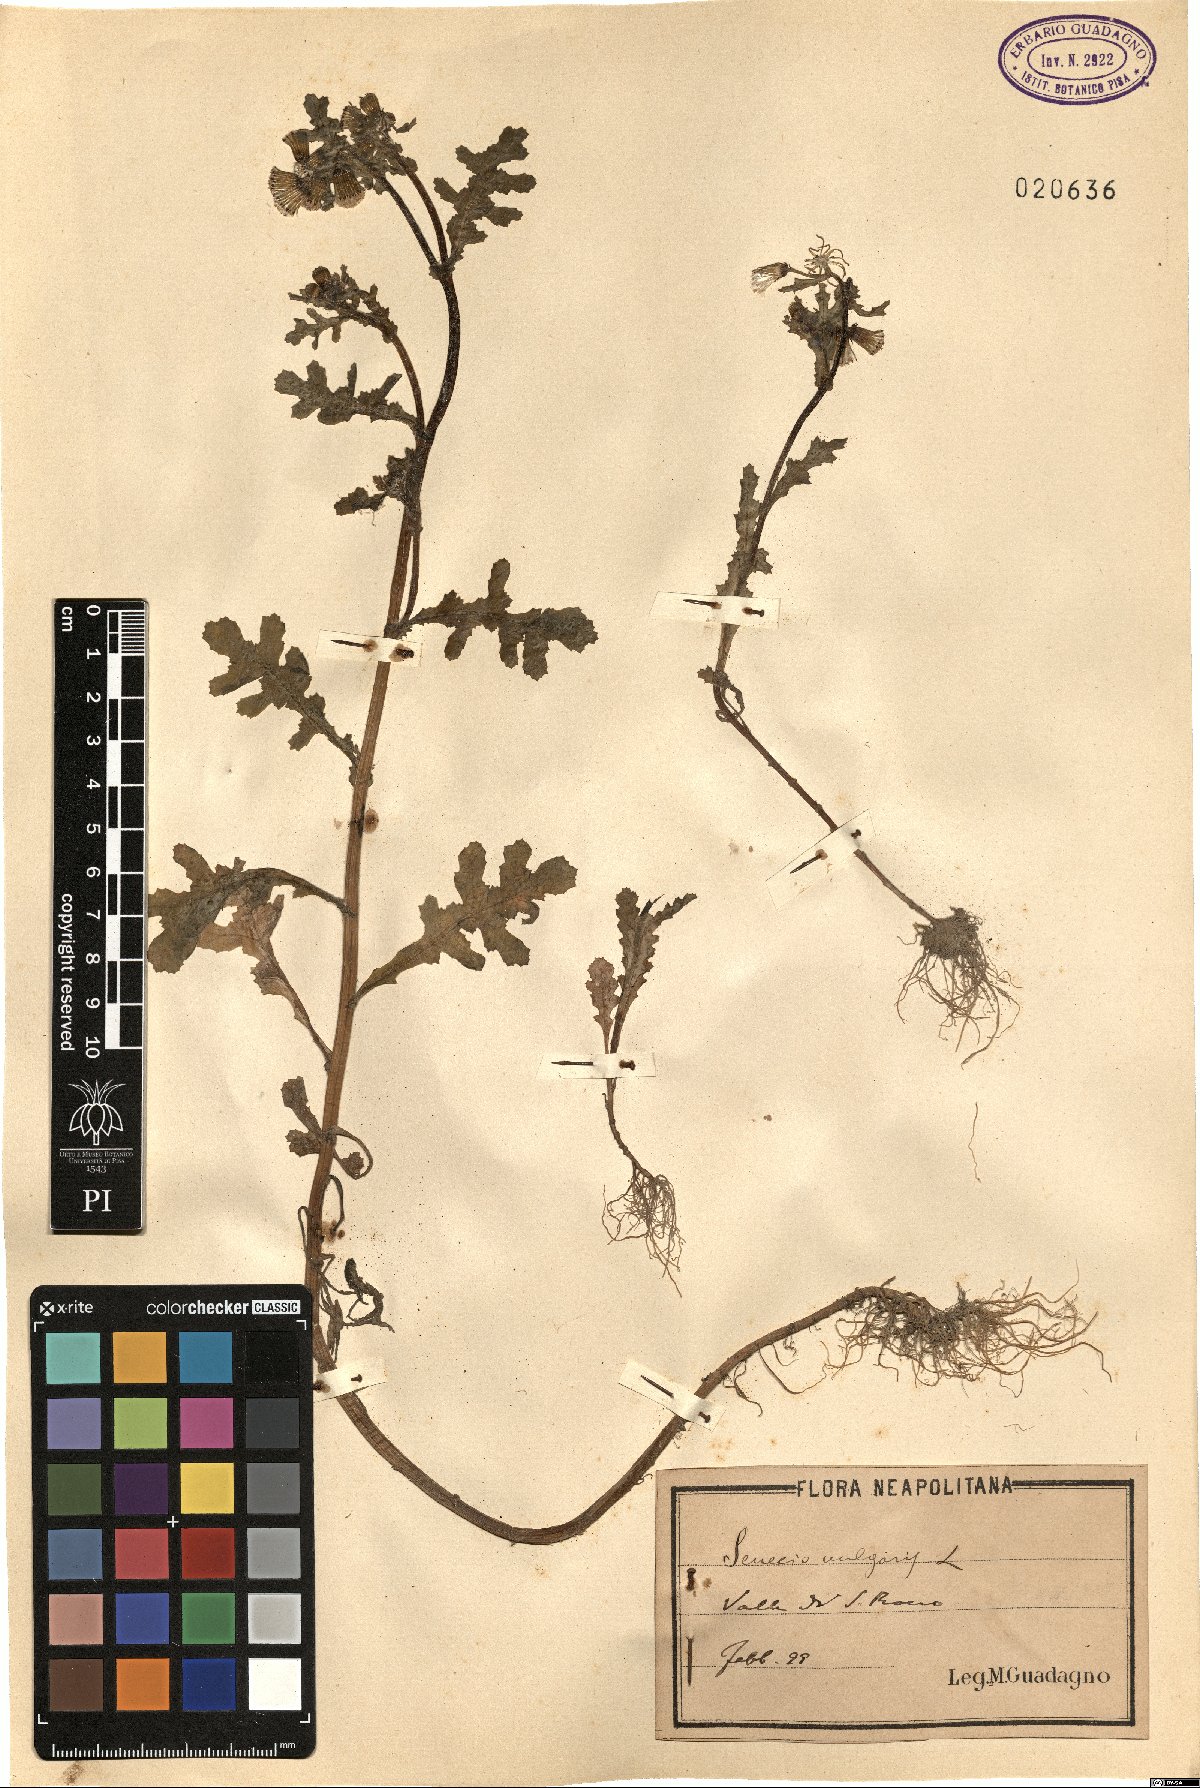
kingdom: Plantae
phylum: Tracheophyta
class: Magnoliopsida
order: Asterales
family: Asteraceae
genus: Senecio
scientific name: Senecio vulgaris
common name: Old-man-in-the-spring
